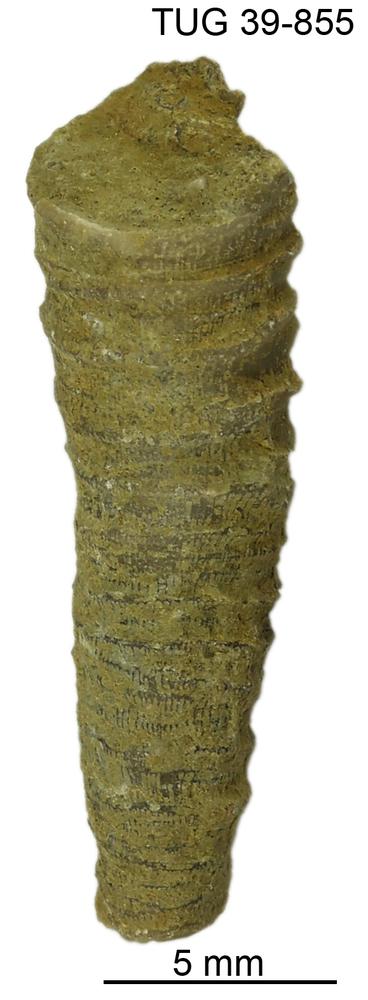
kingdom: Animalia
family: Cornulitidae
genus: Cornulites
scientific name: Cornulites
